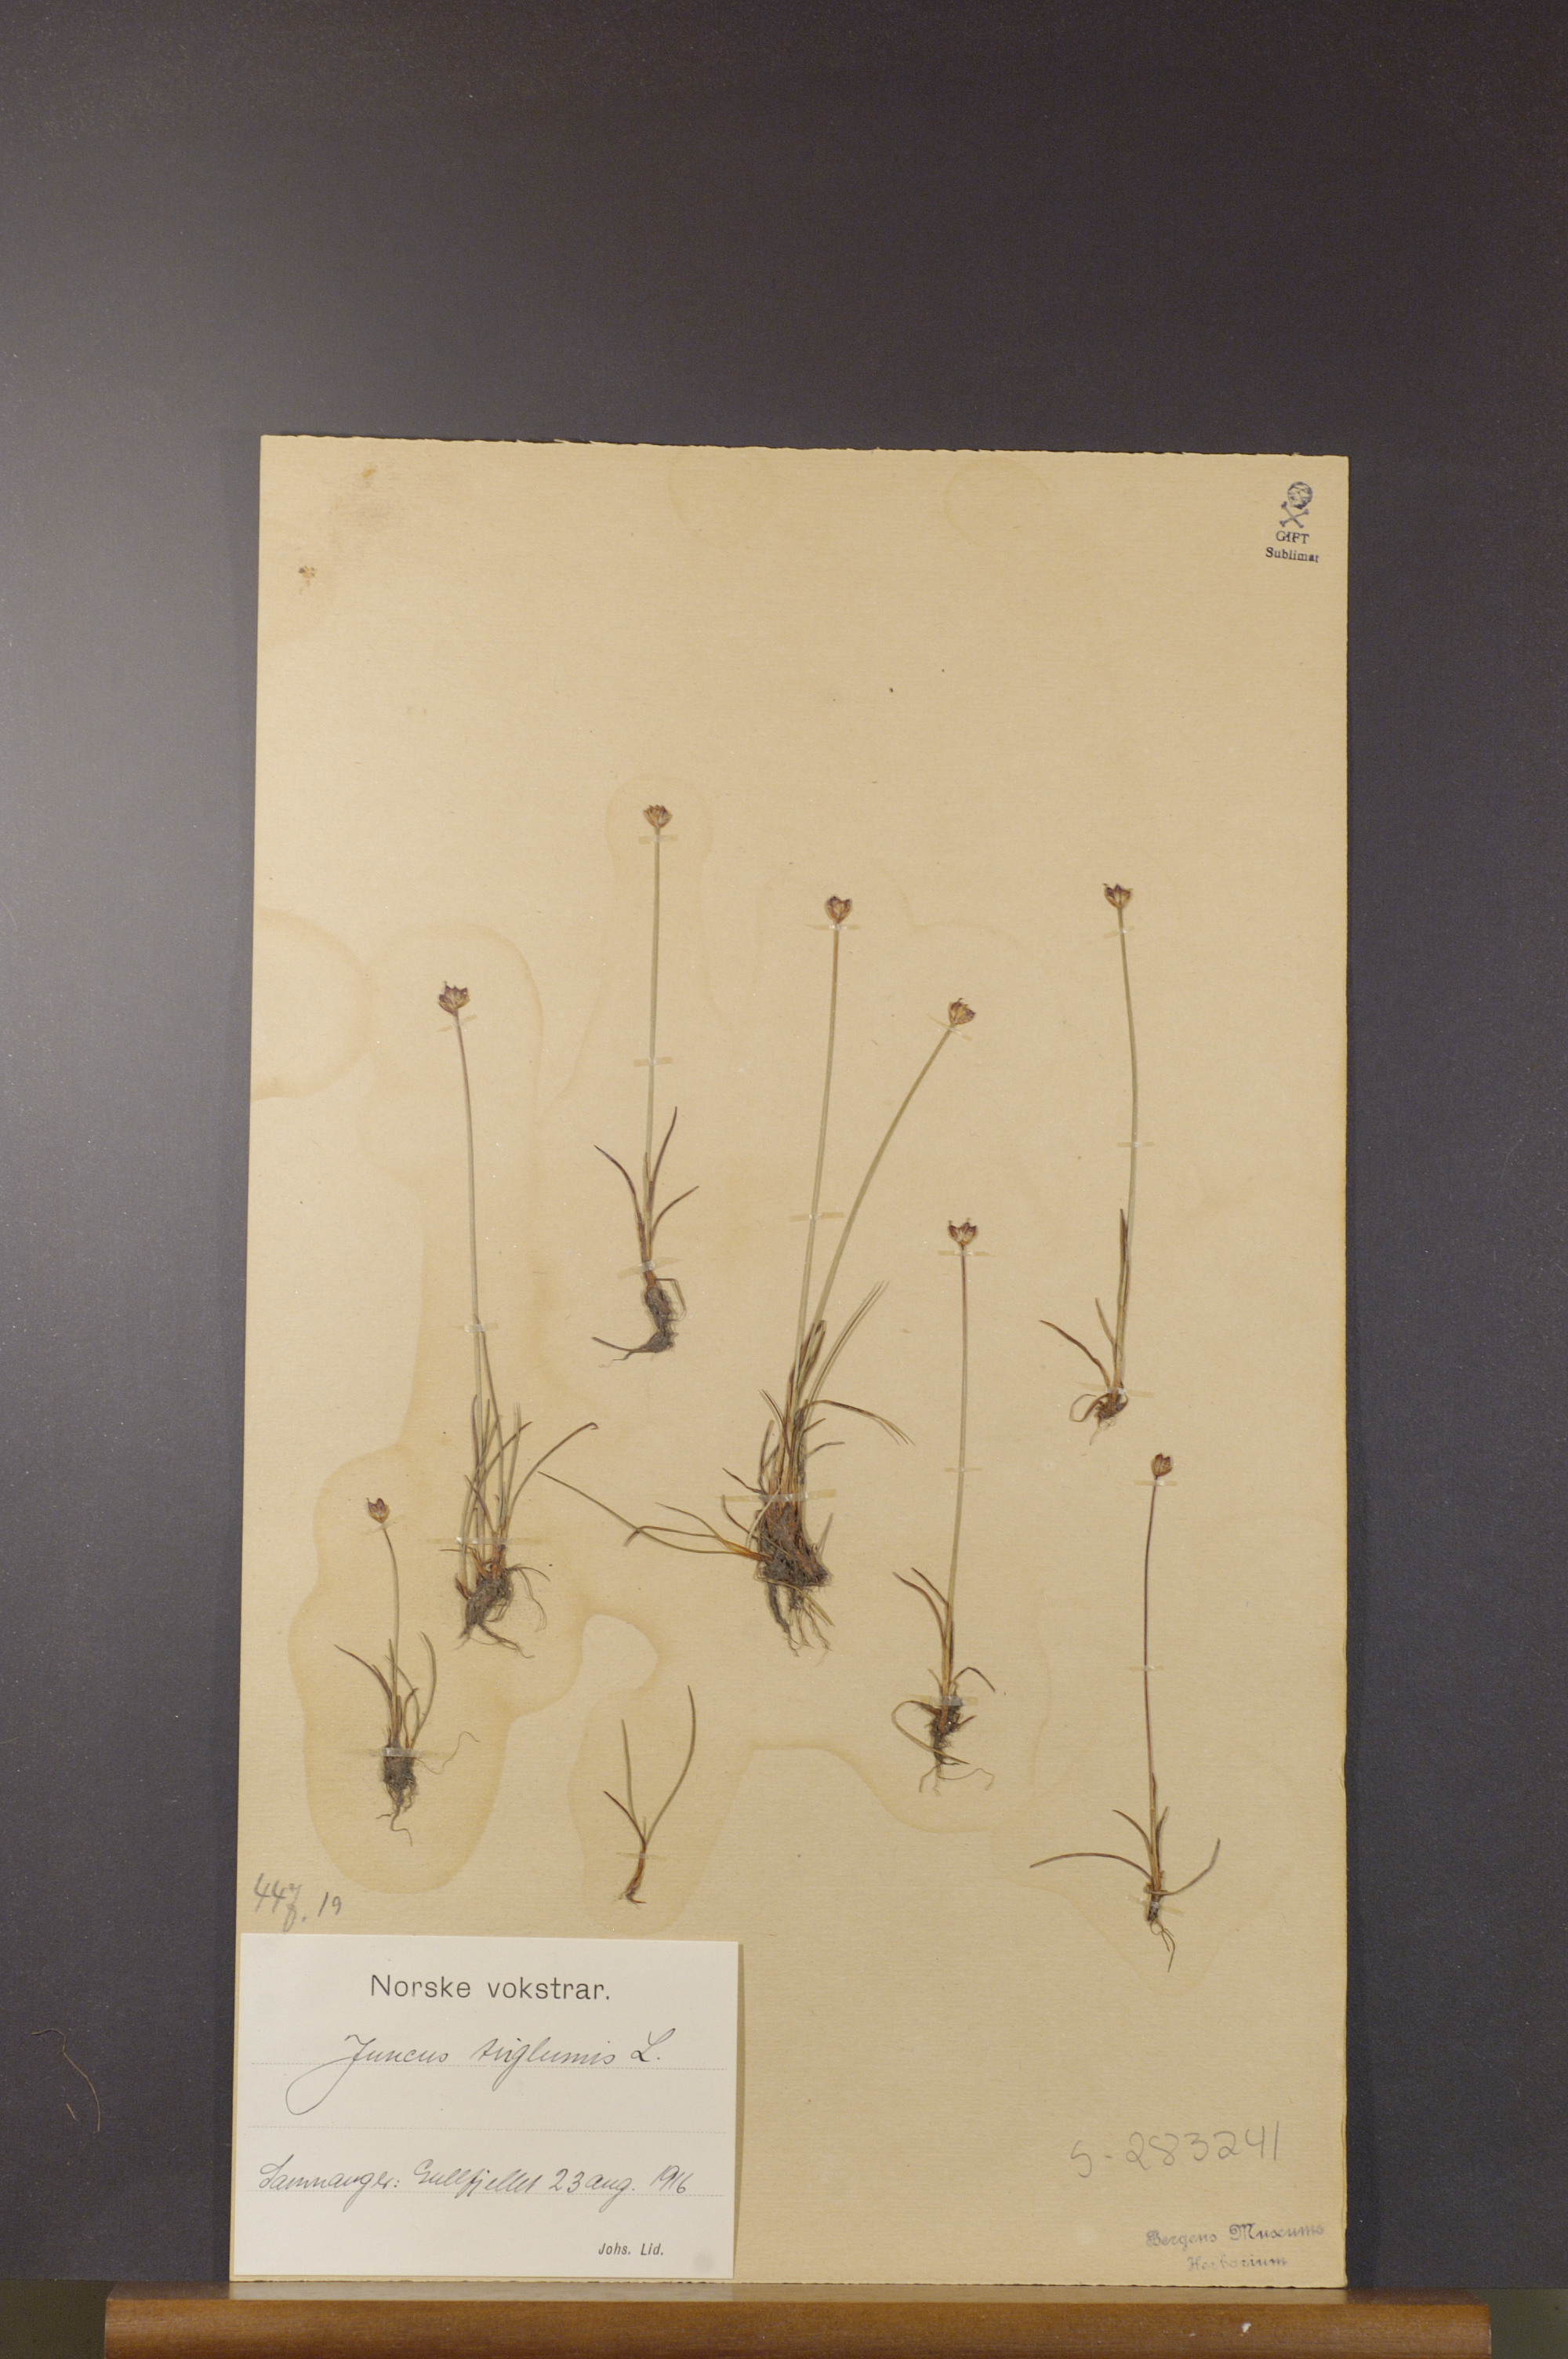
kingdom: Plantae
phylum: Tracheophyta
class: Liliopsida
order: Poales
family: Juncaceae
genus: Juncus
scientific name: Juncus triglumis
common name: Three-flowered rush
